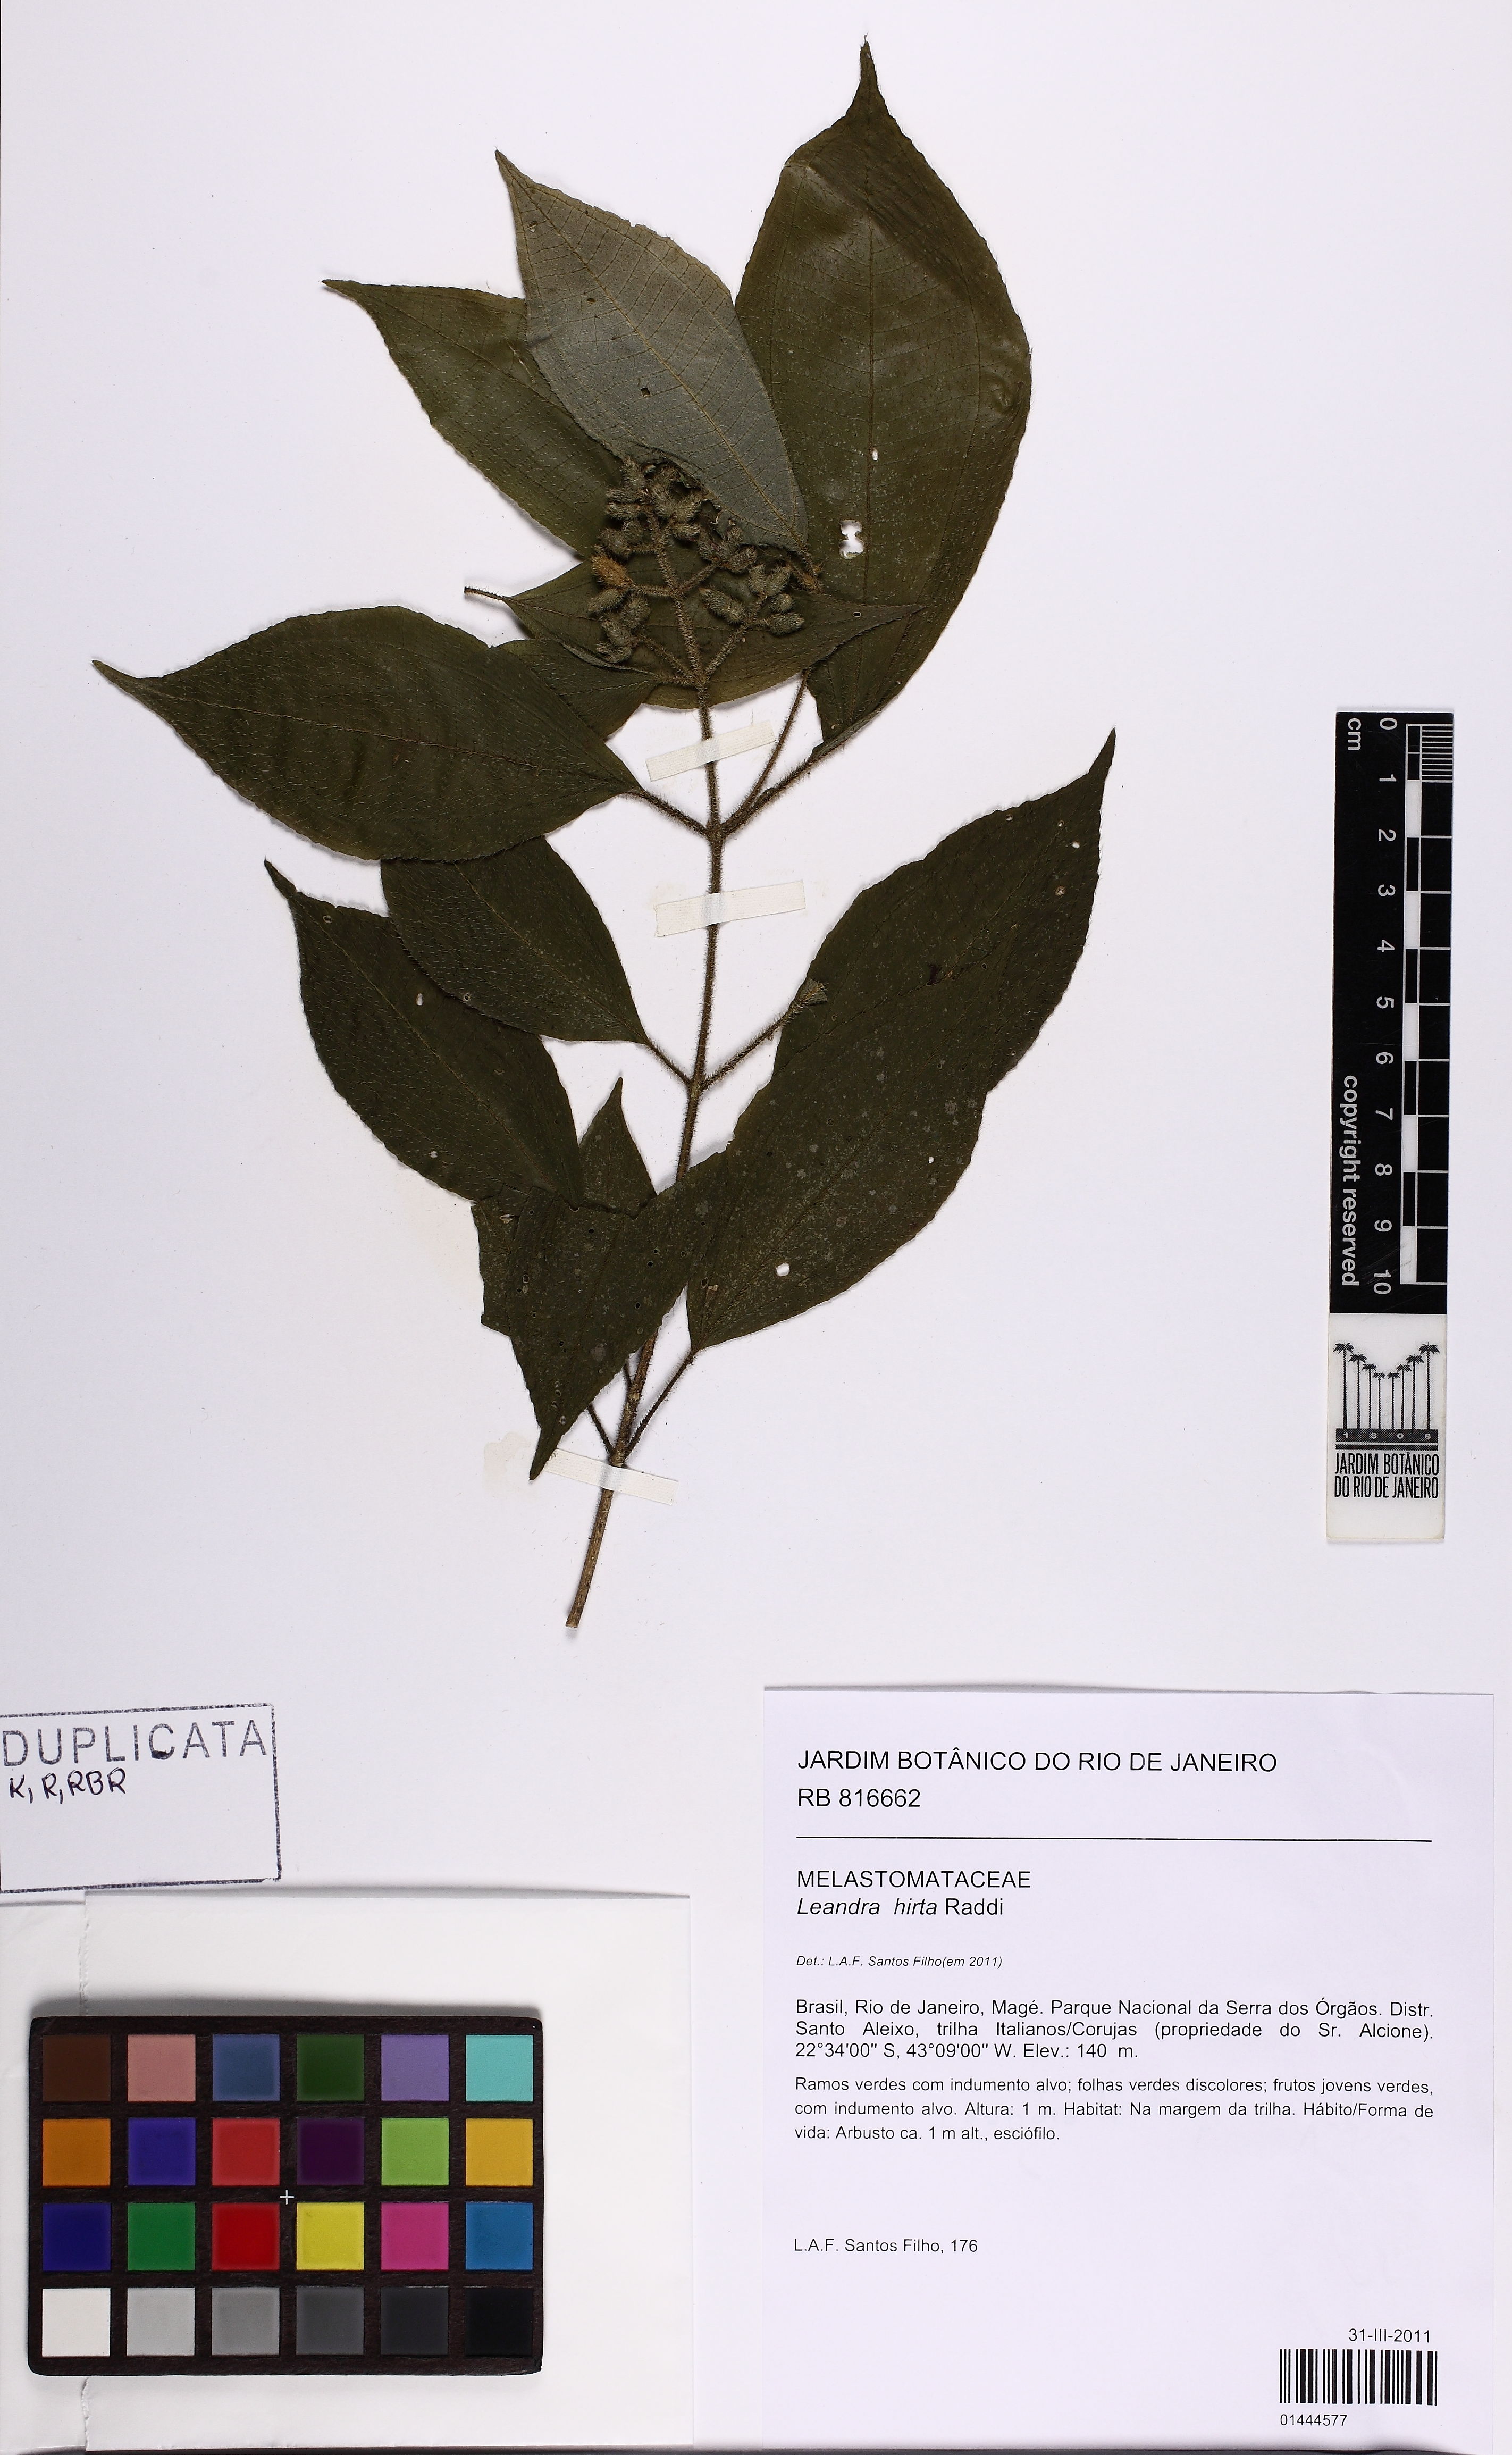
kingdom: Plantae
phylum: Tracheophyta
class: Magnoliopsida
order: Myrtales
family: Melastomataceae
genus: Miconia
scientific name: Miconia dubia
